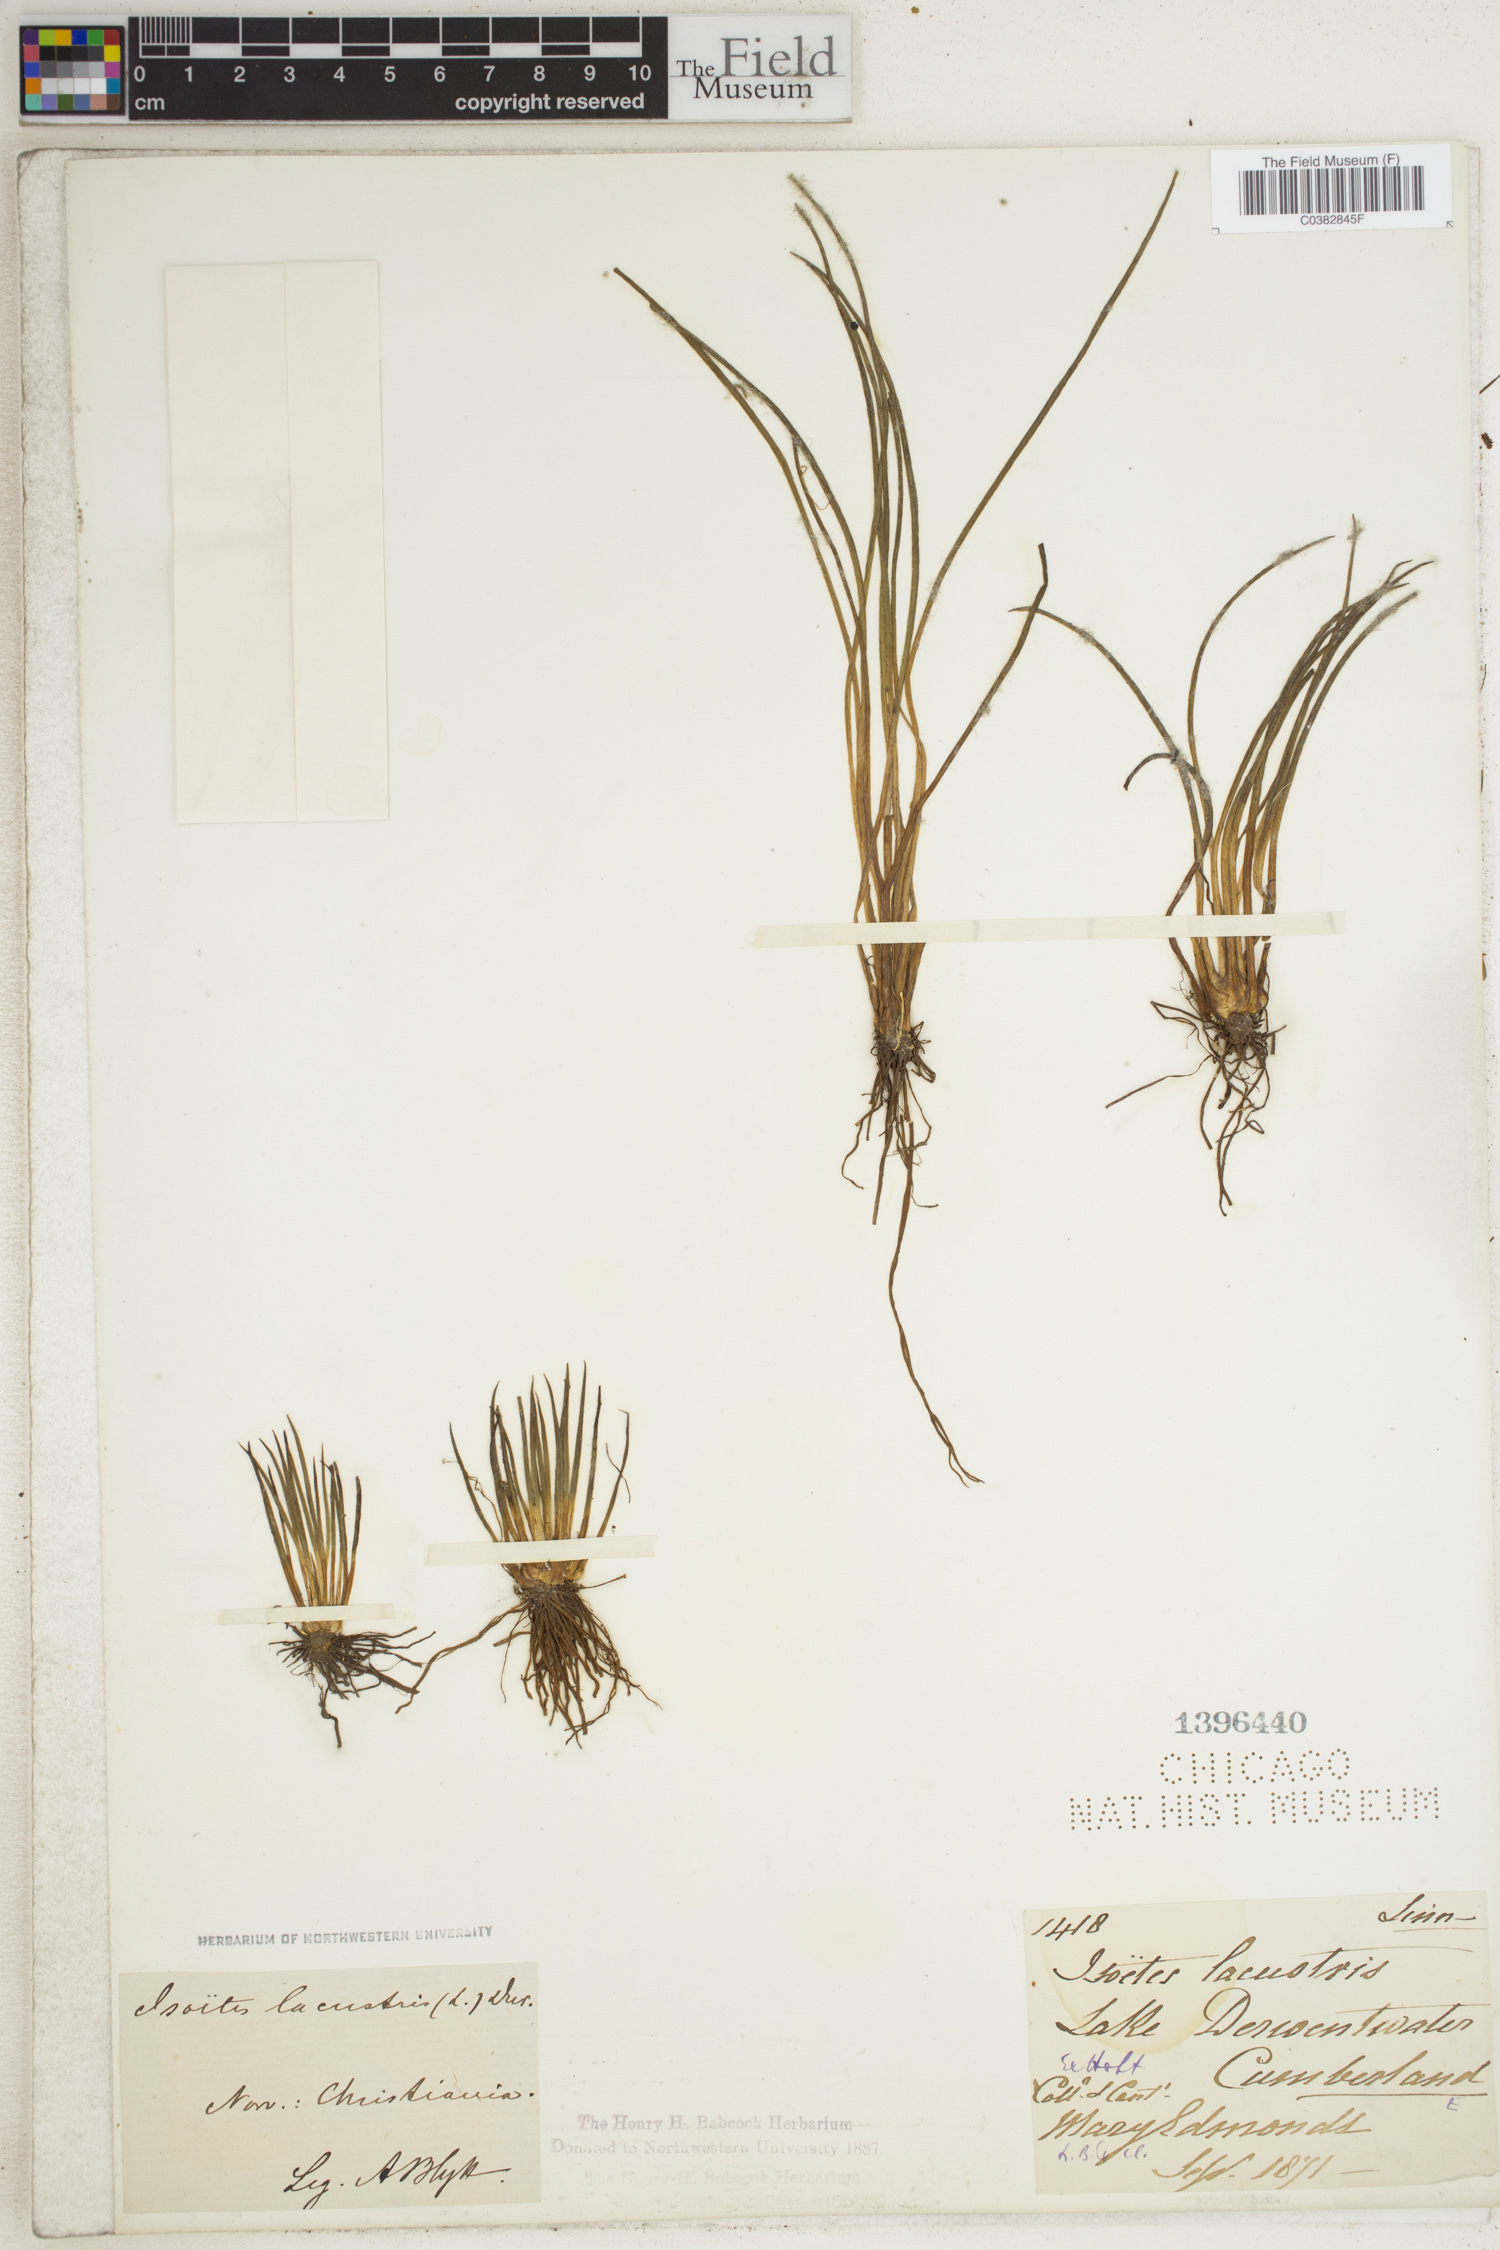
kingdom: Plantae
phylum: Tracheophyta
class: Lycopodiopsida
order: Isoetales
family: Isoetaceae
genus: Isoetes
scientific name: Isoetes lacustris
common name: Common quillwort
